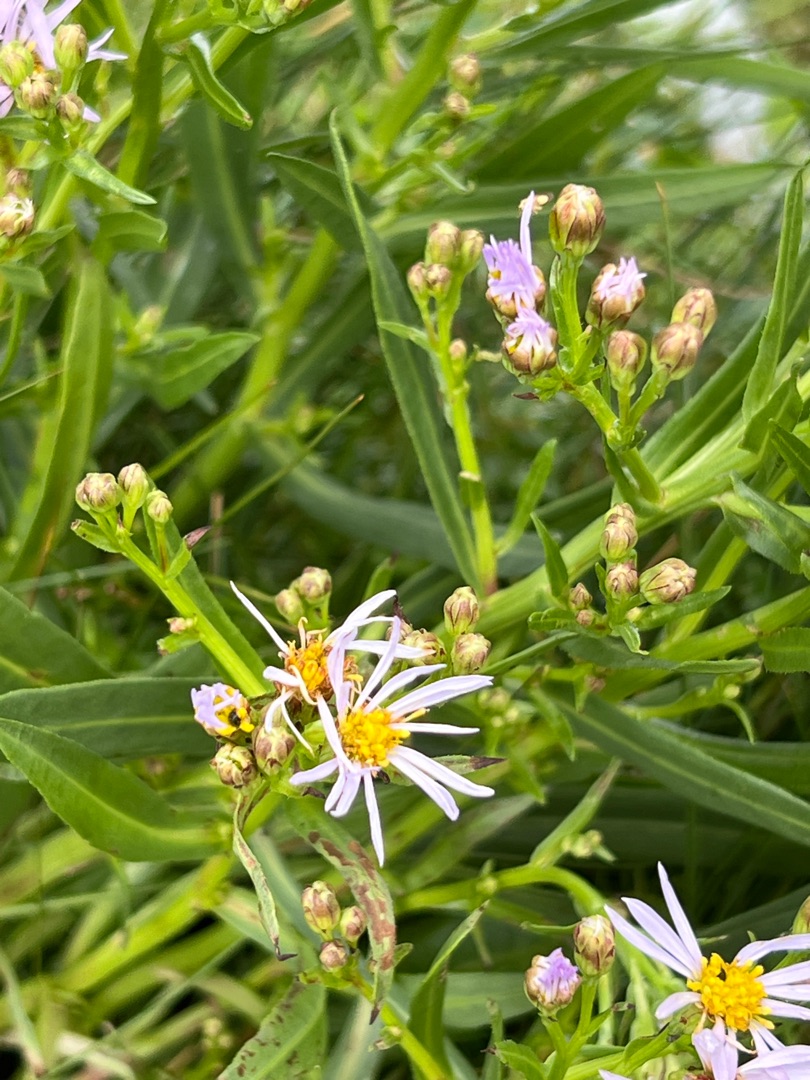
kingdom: Plantae
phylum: Tracheophyta
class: Magnoliopsida
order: Asterales
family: Asteraceae
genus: Tripolium
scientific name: Tripolium pannonicum
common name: Strandasters
